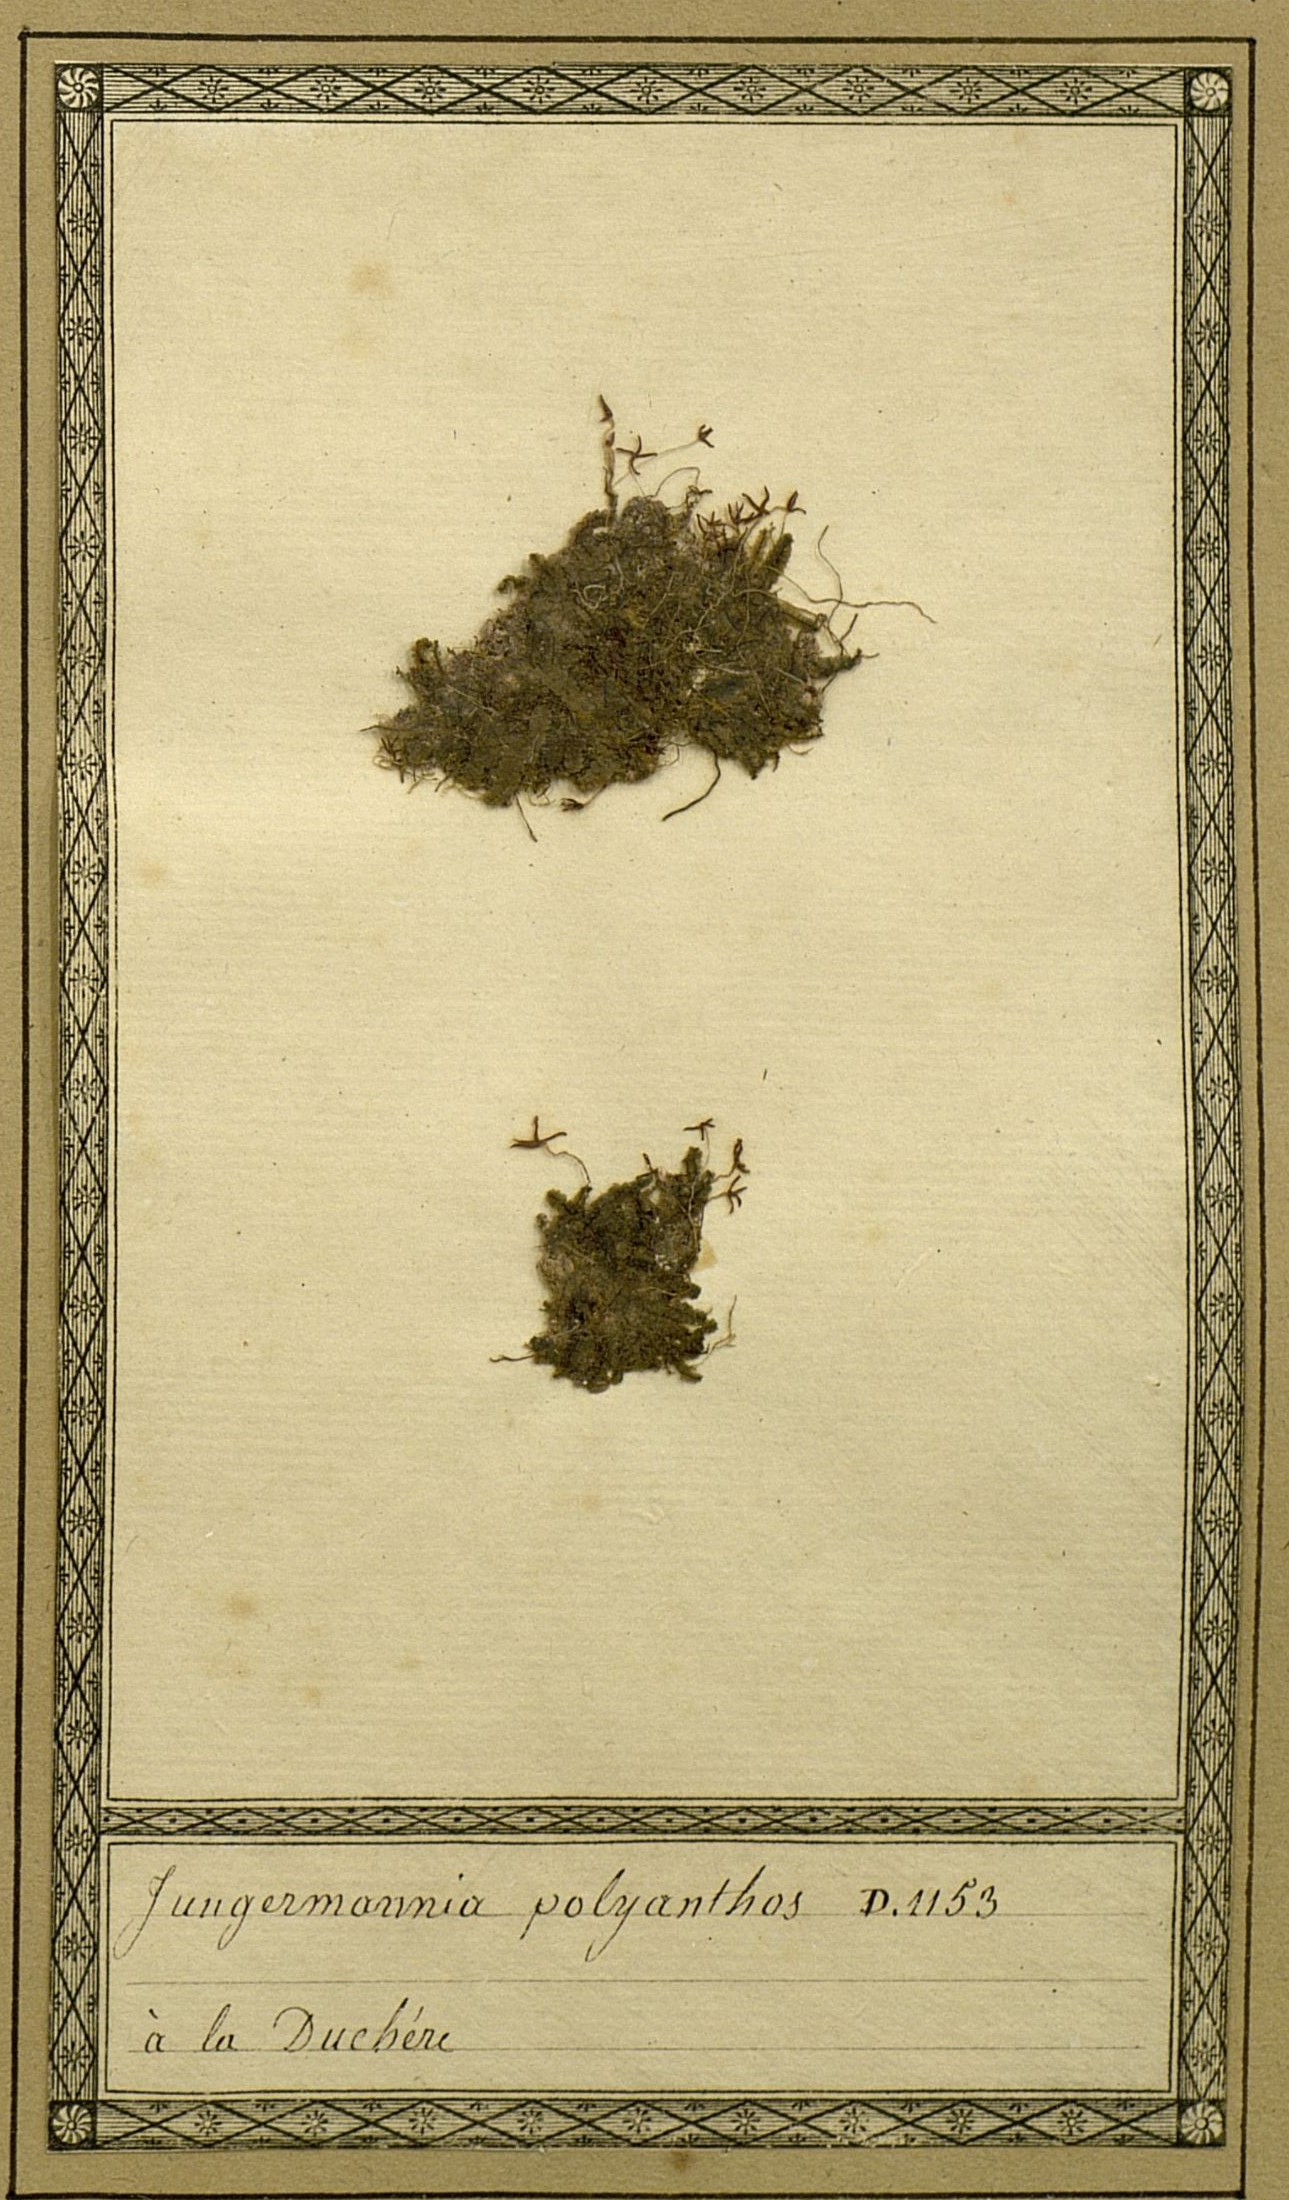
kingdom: Plantae
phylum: Marchantiophyta
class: Jungermanniopsida
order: Jungermanniales
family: Lophocoleaceae
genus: Chiloscyphus
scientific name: Chiloscyphus polyanthos
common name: Square-leaved crestwort
